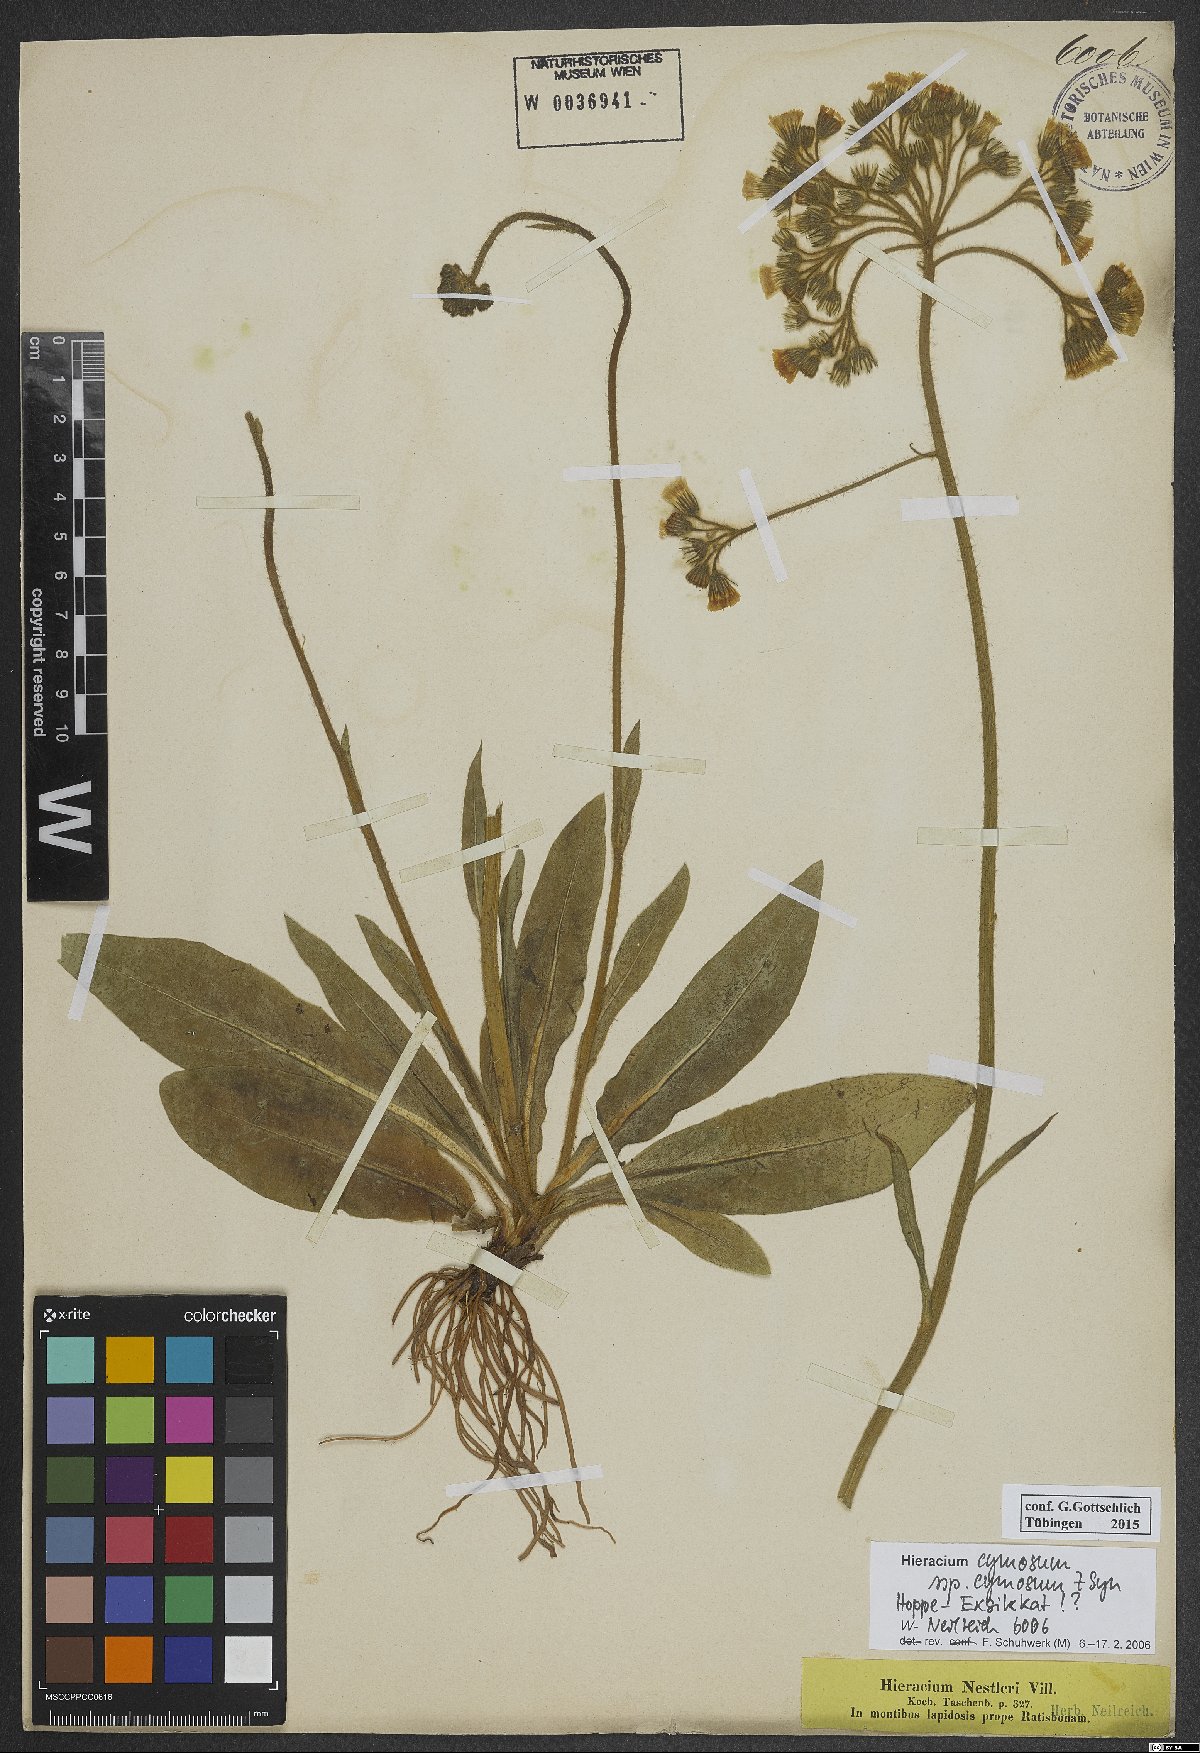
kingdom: Plantae
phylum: Tracheophyta
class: Magnoliopsida
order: Asterales
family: Asteraceae
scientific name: Asteraceae
